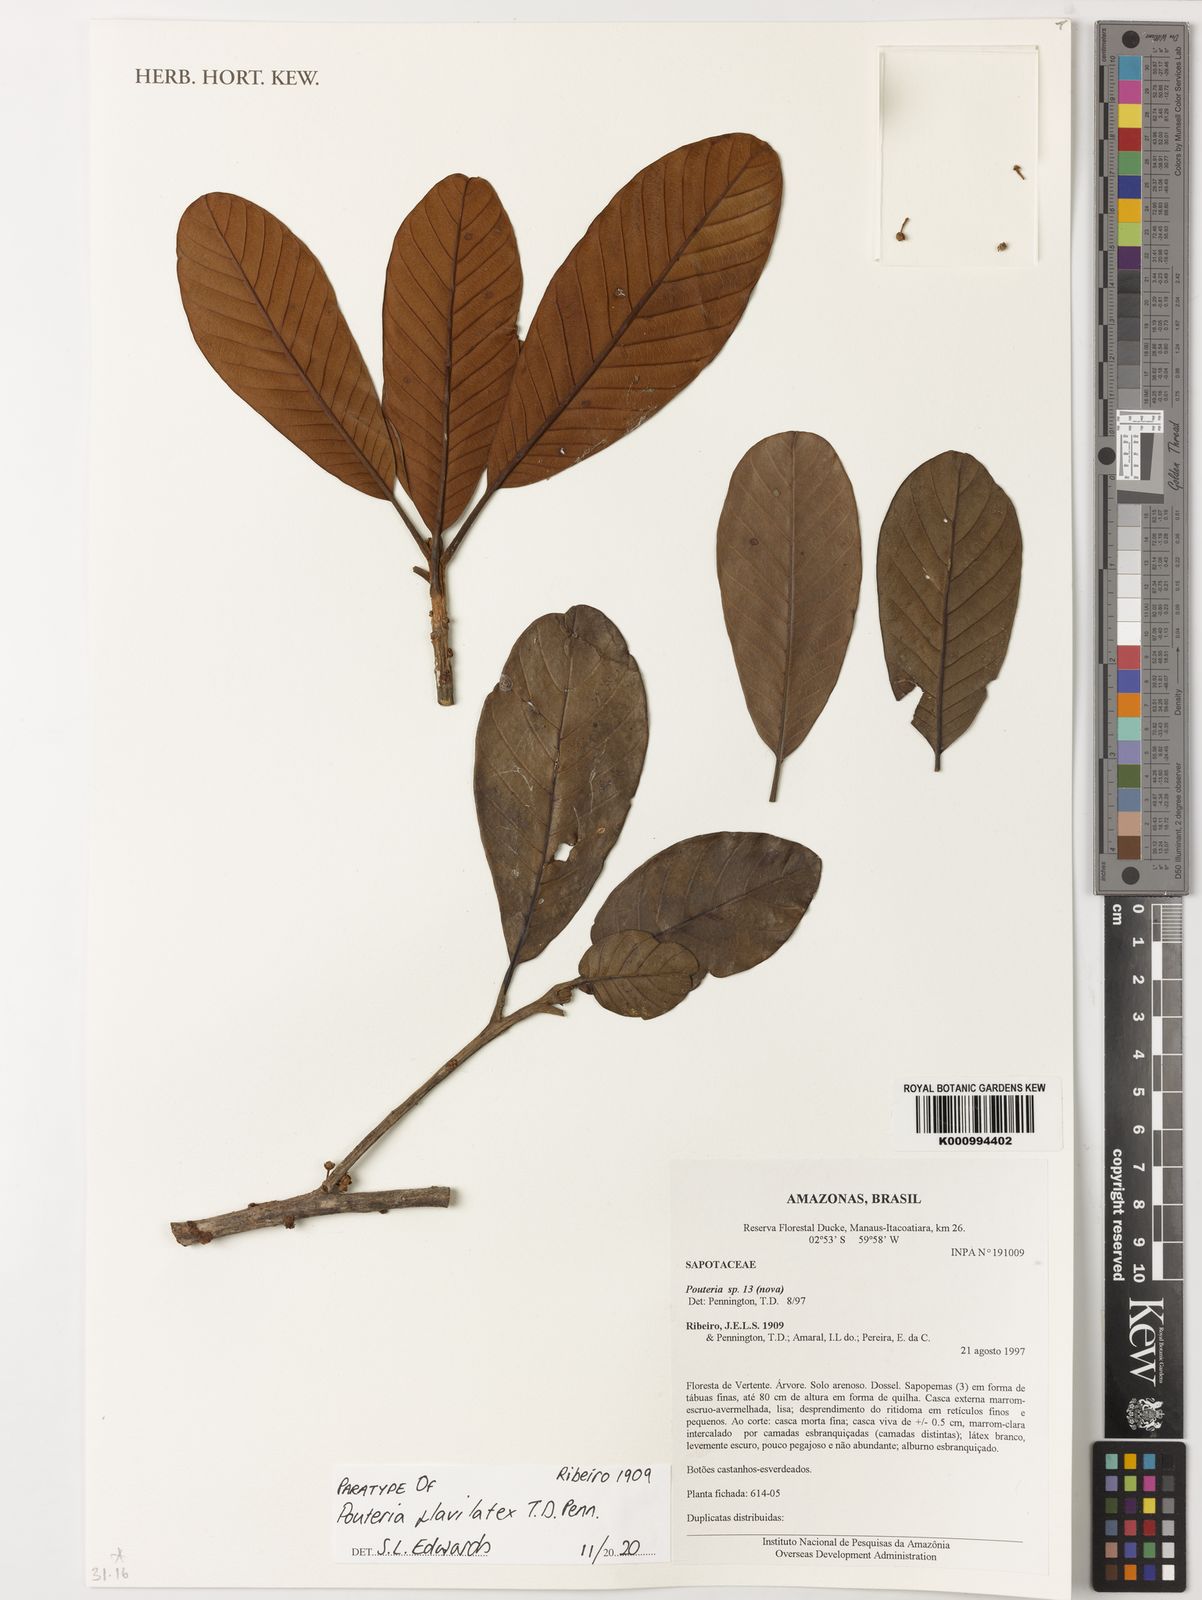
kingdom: Plantae
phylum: Tracheophyta
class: Magnoliopsida
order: Ericales
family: Sapotaceae
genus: Pouteria
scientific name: Pouteria flavilatex
